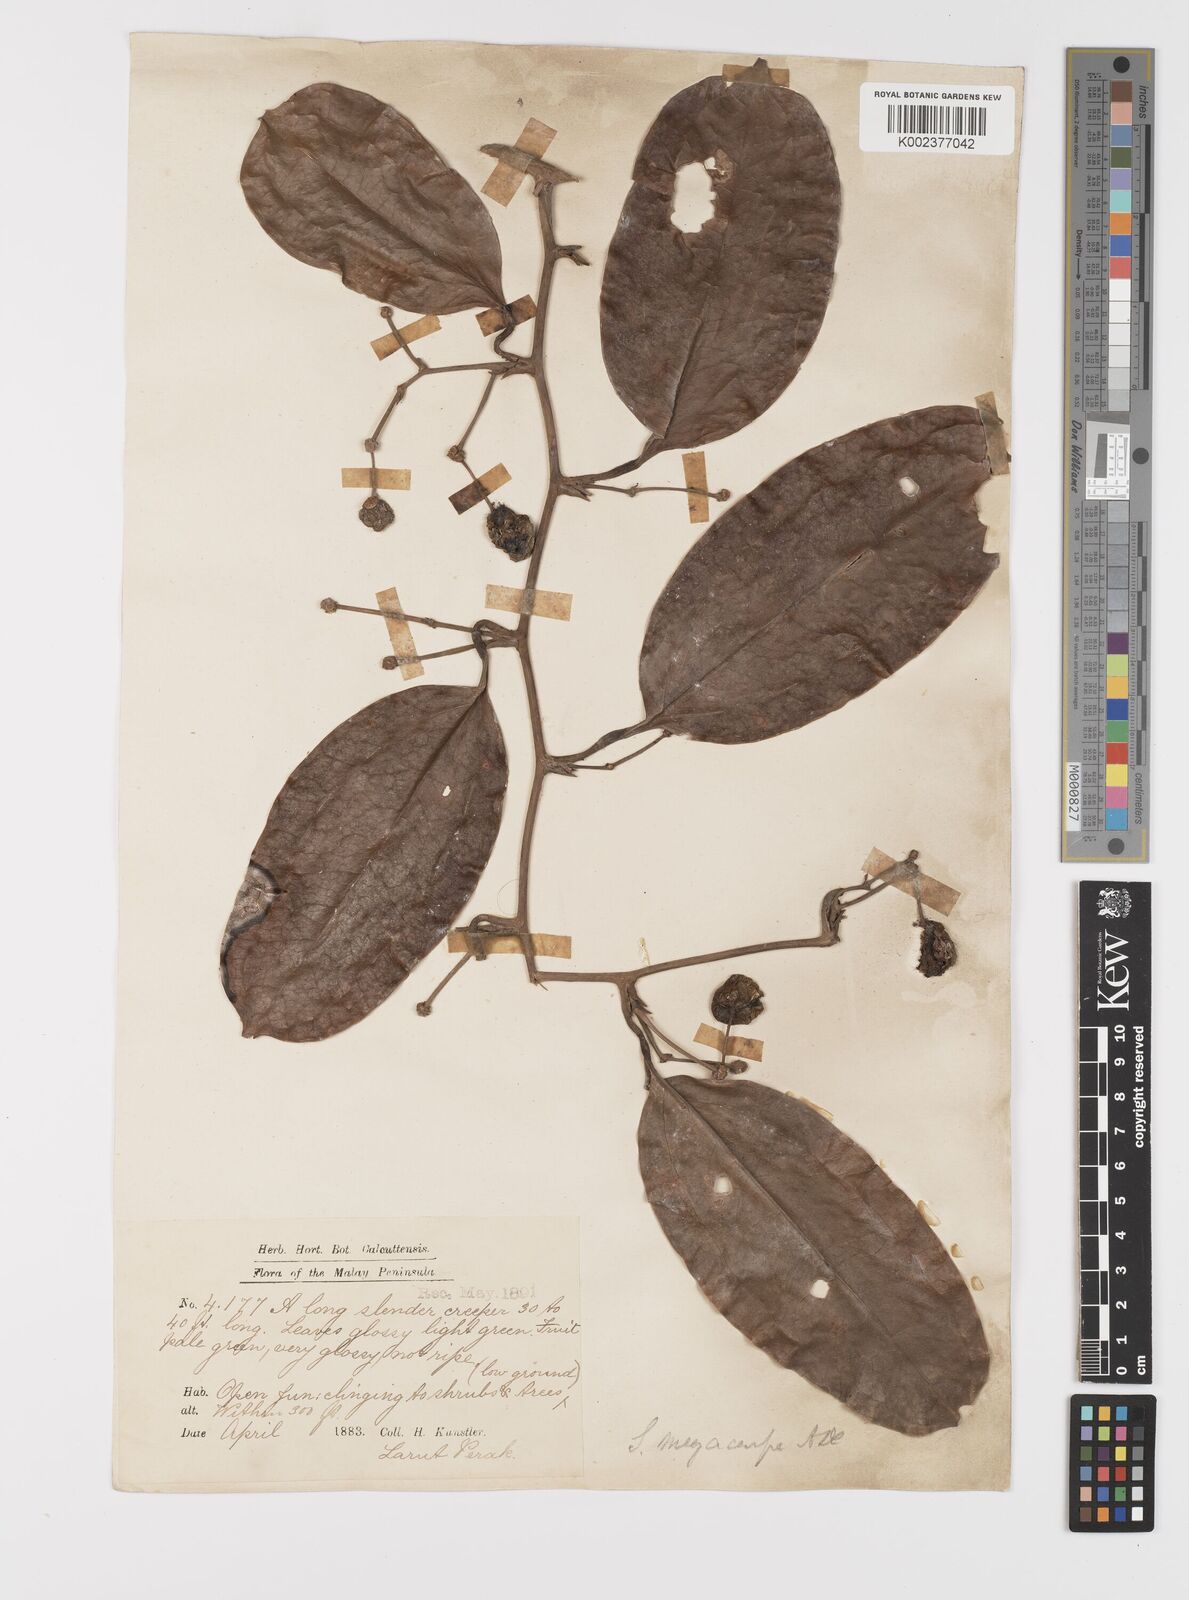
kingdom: Plantae
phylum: Tracheophyta
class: Liliopsida
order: Liliales
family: Smilacaceae
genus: Smilax
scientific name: Smilax megacarpa
